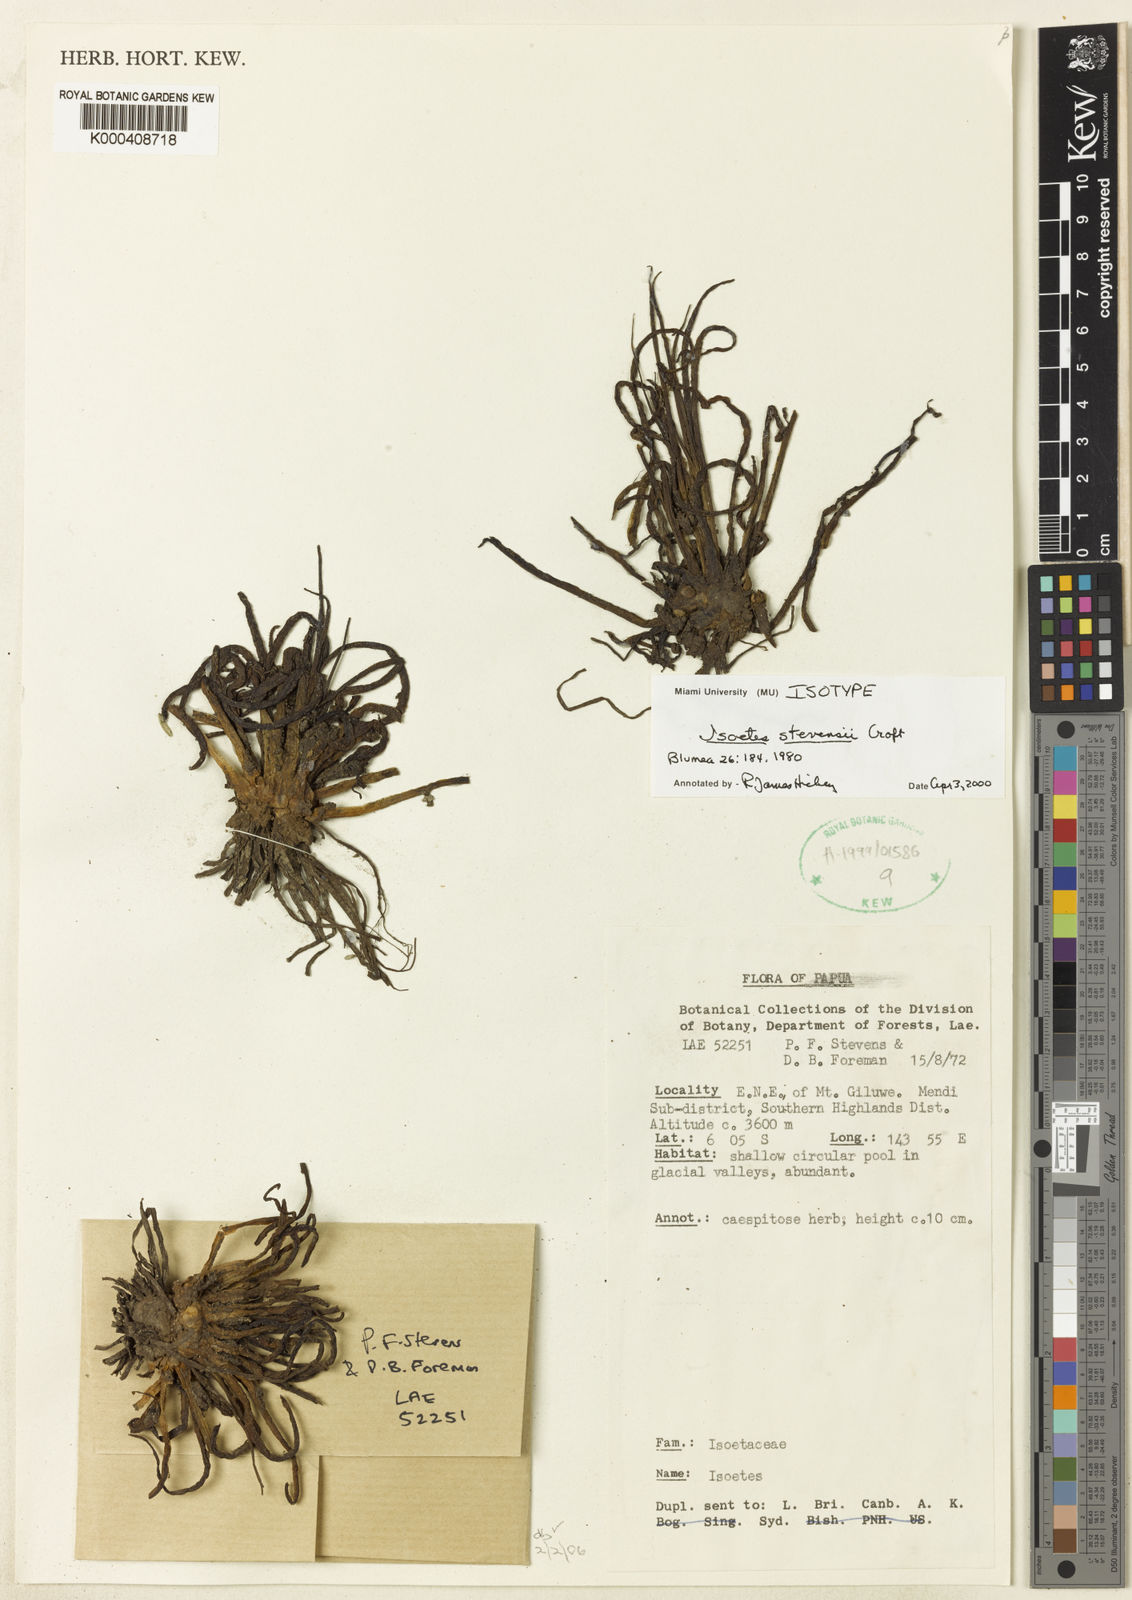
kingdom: Plantae
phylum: Tracheophyta
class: Lycopodiopsida
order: Isoetales
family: Isoetaceae
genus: Isoetes
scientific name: Isoetes stevensii
